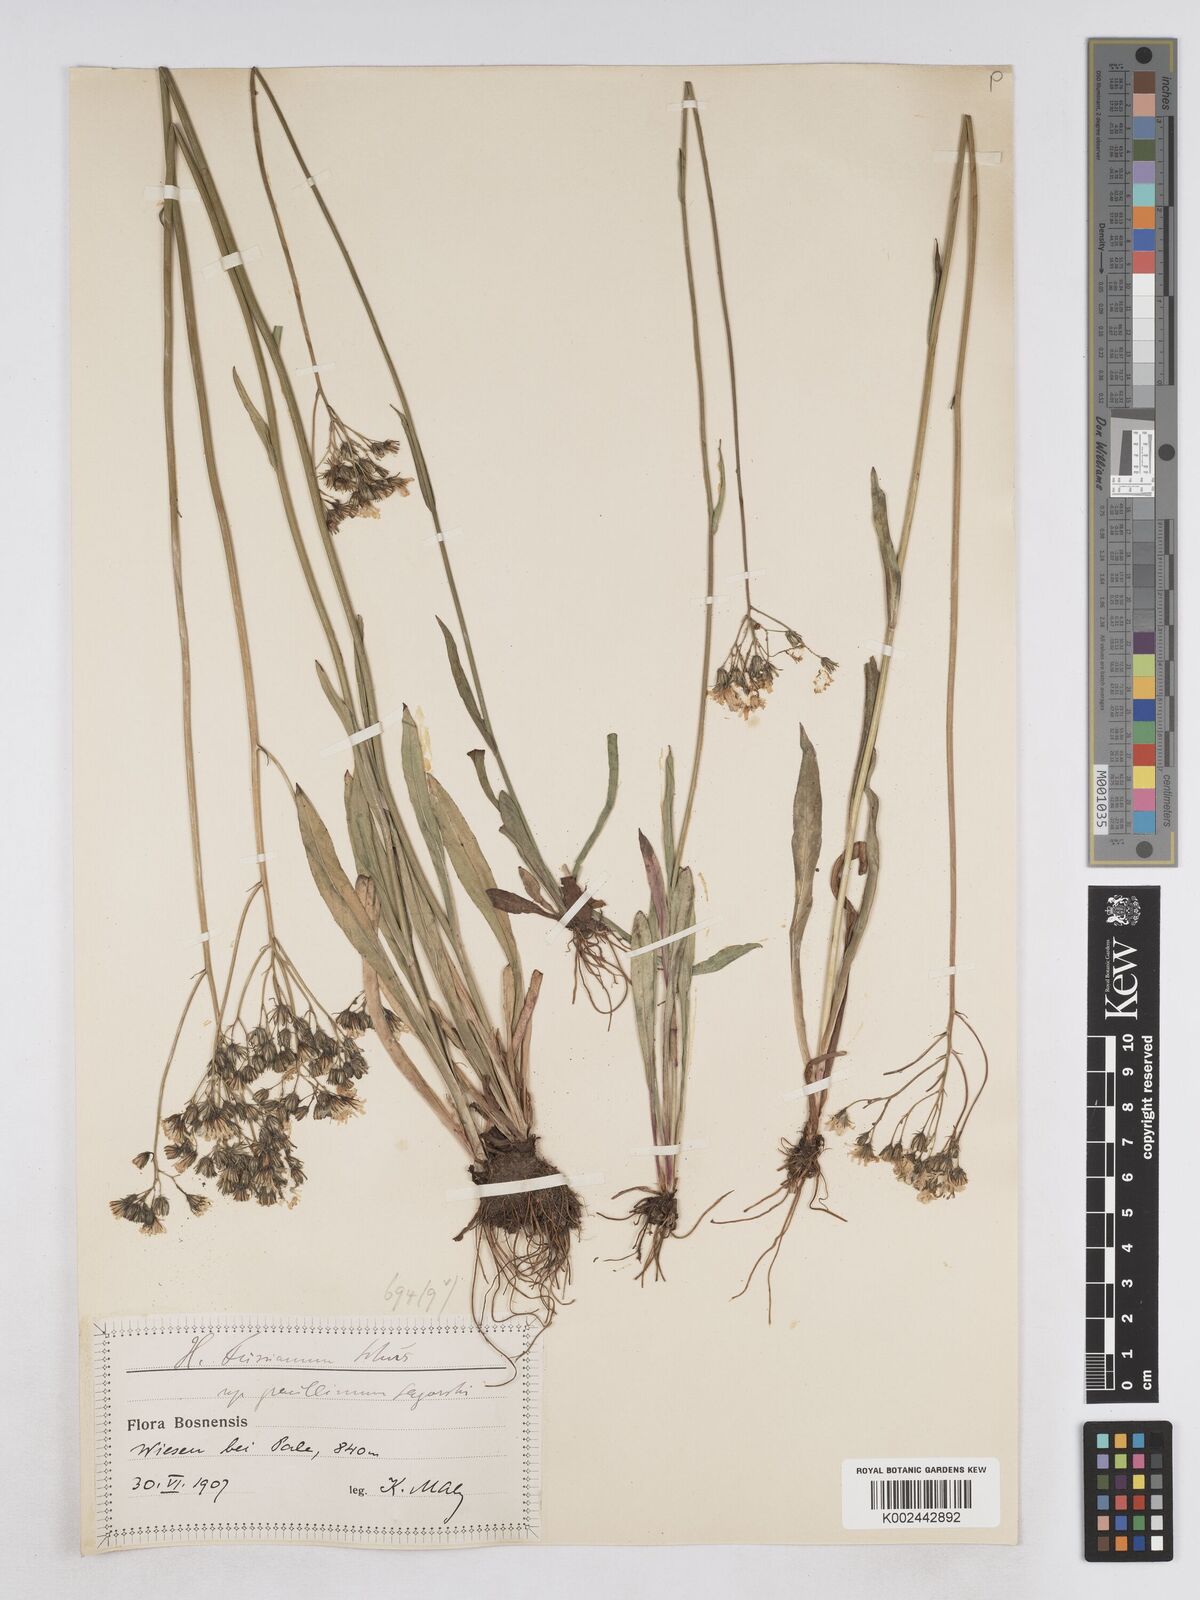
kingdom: Plantae
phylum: Tracheophyta
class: Magnoliopsida
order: Asterales
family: Asteraceae
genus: Pilosella
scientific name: Pilosella pavichii
